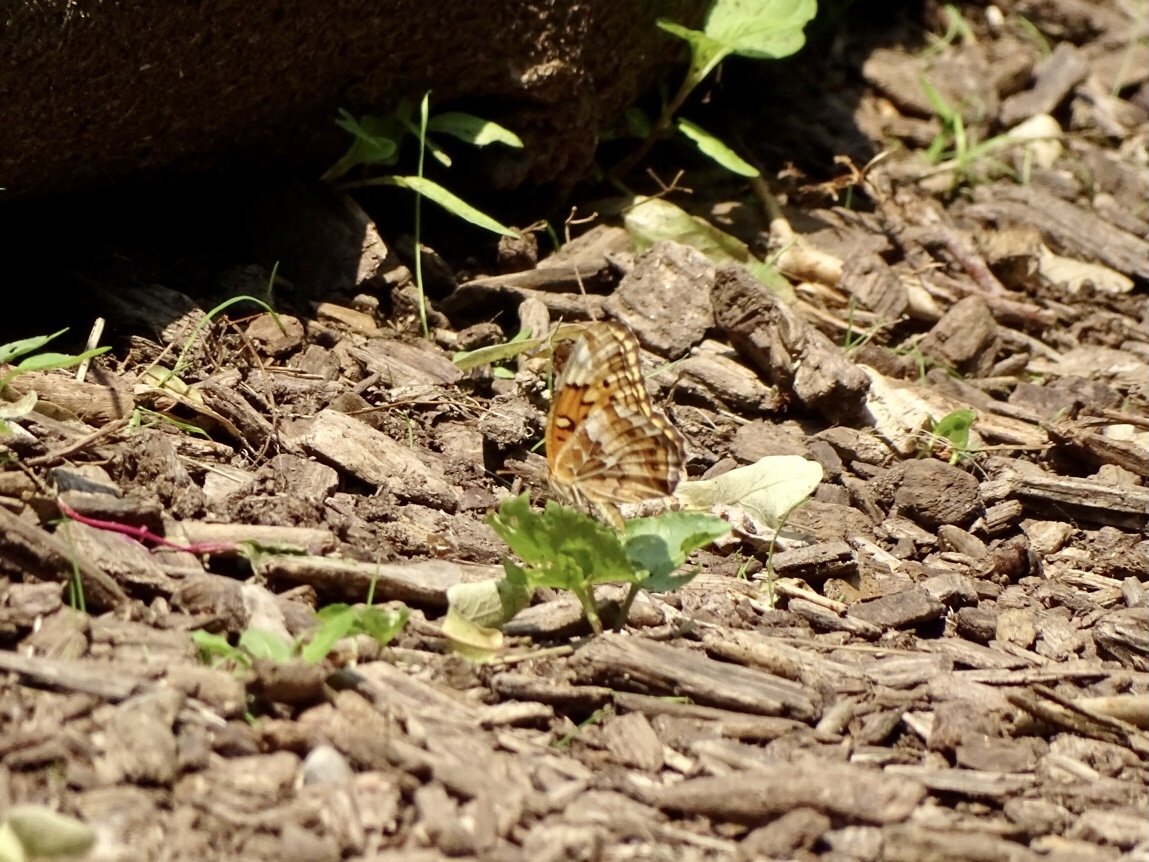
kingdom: Animalia
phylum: Arthropoda
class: Insecta
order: Lepidoptera
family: Nymphalidae
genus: Euptoieta
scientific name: Euptoieta claudia
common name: Variegated Fritillary
